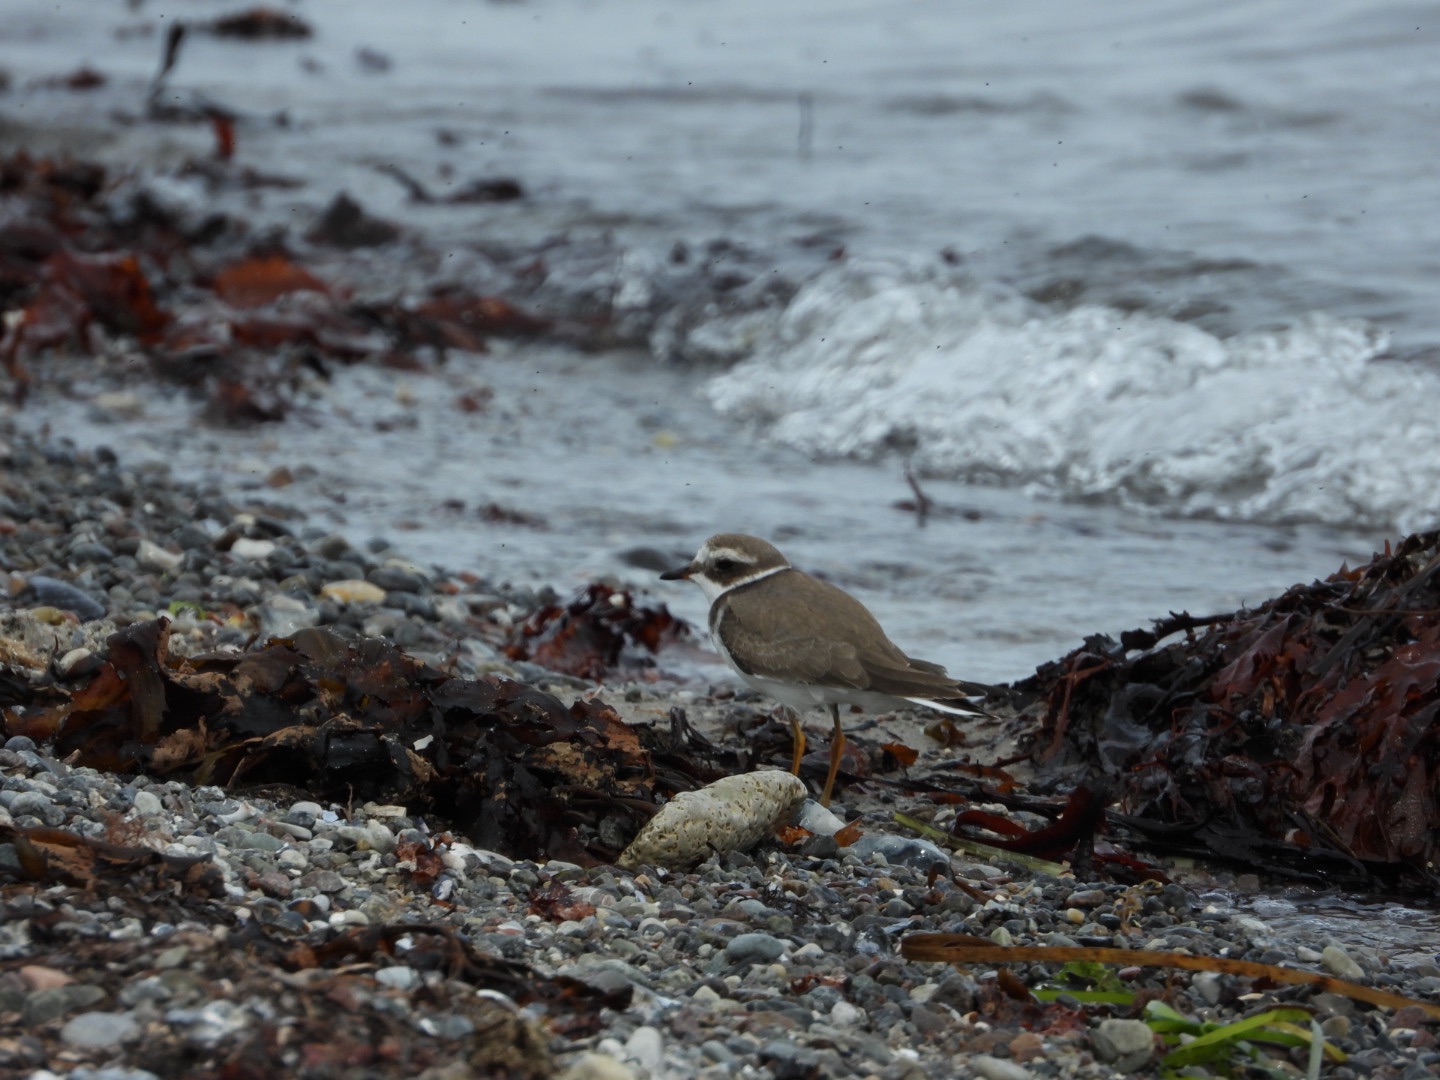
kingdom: Animalia
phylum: Chordata
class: Aves
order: Charadriiformes
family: Charadriidae
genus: Charadrius
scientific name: Charadrius hiaticula
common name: Stor præstekrave
